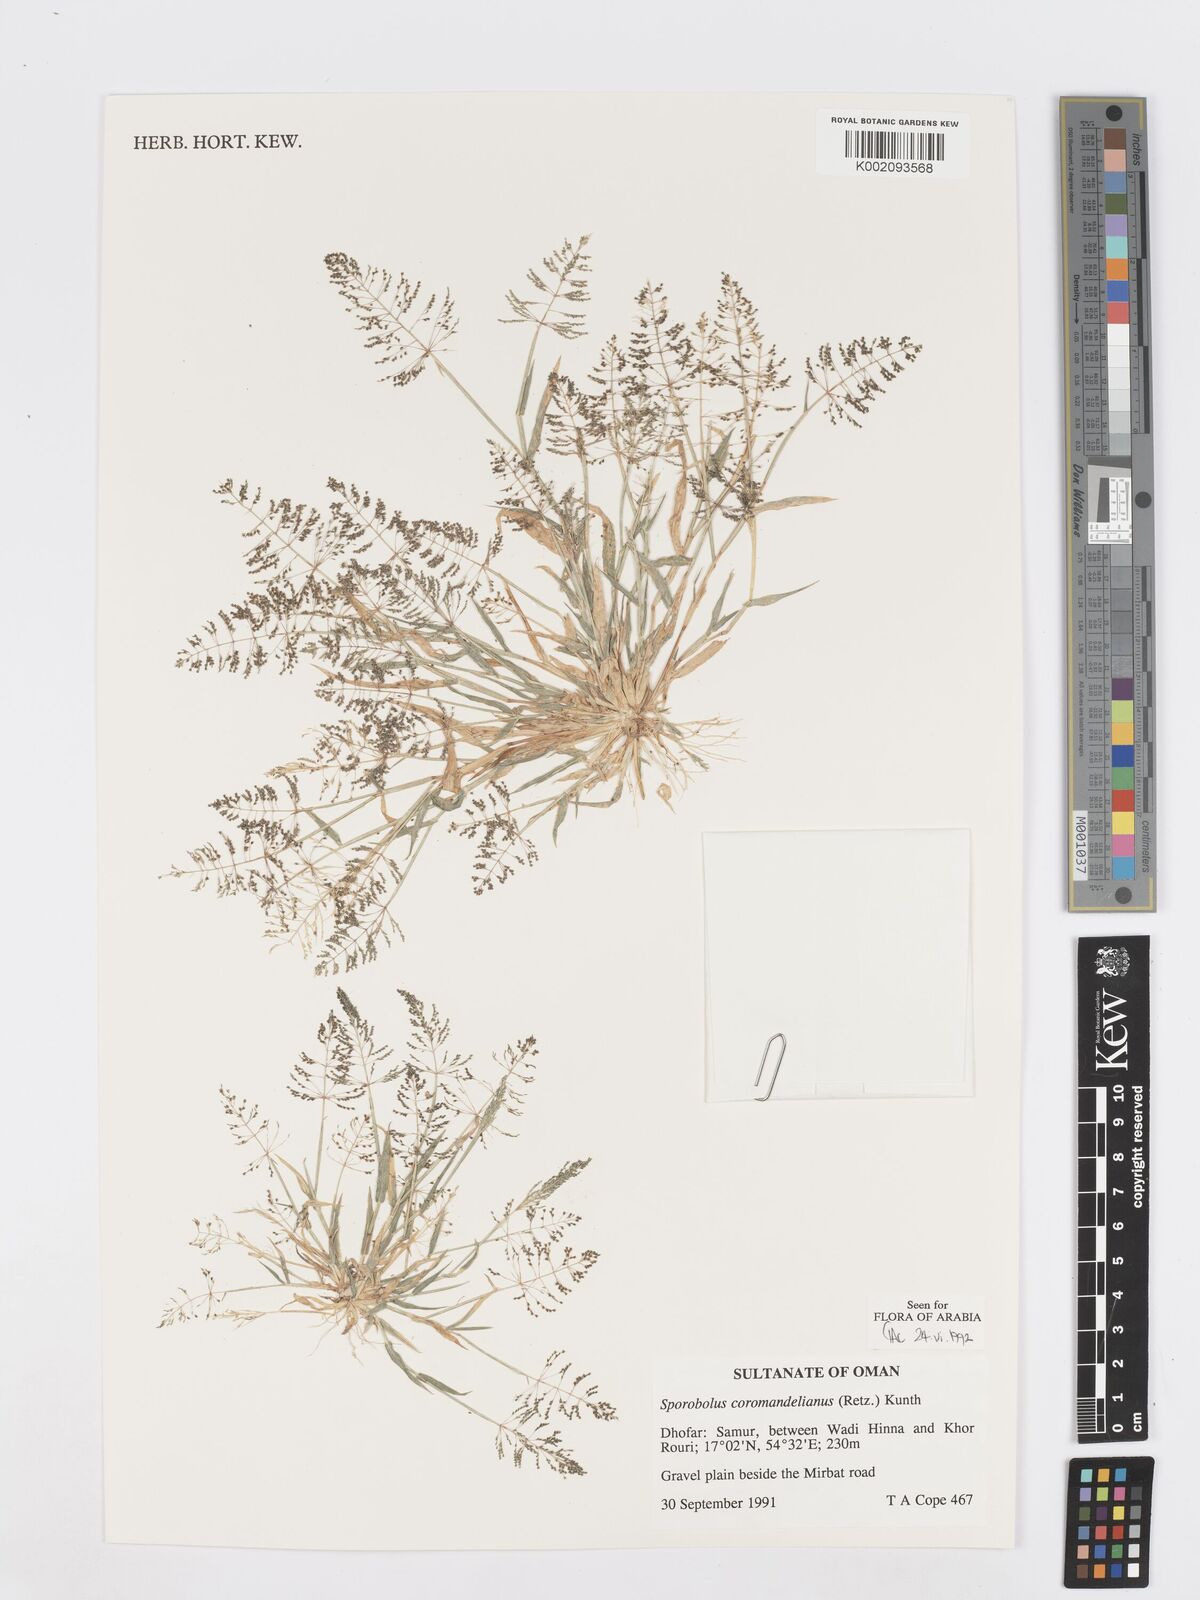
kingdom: Plantae
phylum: Tracheophyta
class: Liliopsida
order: Poales
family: Poaceae
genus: Sporobolus
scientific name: Sporobolus coromandelianus
